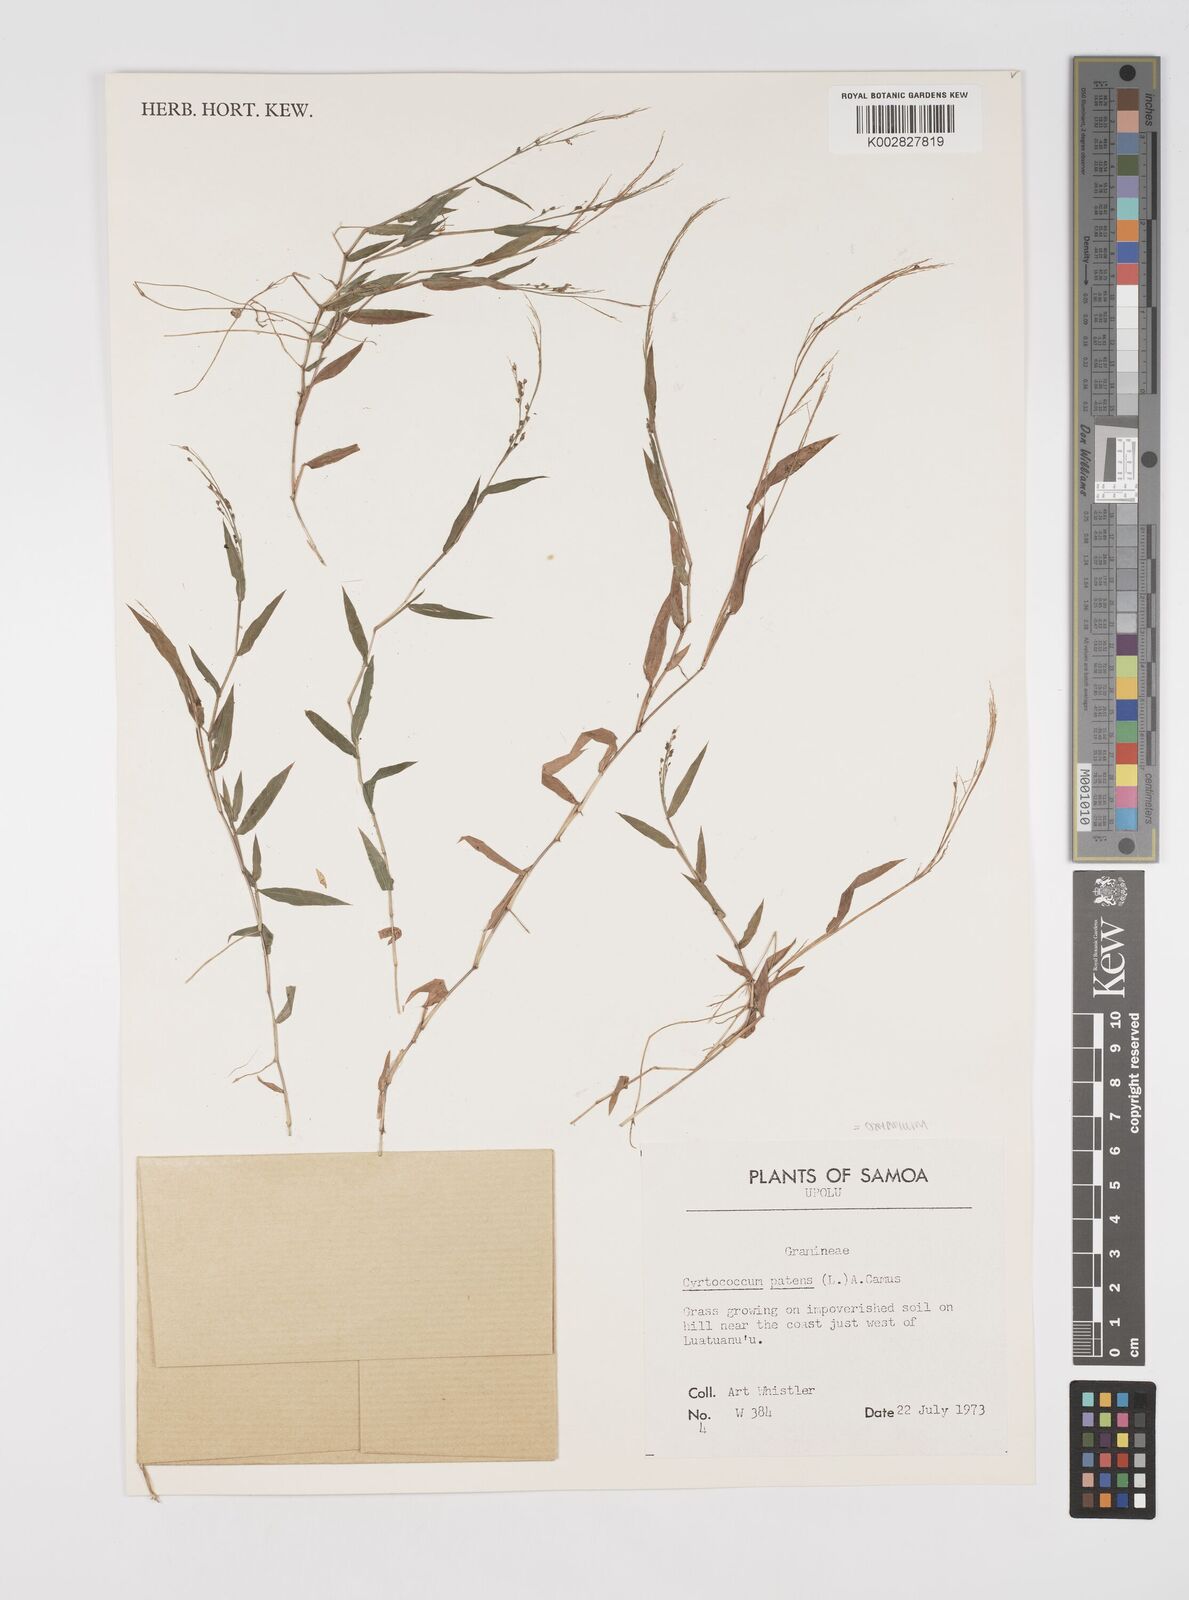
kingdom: Plantae
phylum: Tracheophyta
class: Liliopsida
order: Poales
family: Poaceae
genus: Cyrtococcum
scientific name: Cyrtococcum patens
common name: Broad-leaved bowgrass
